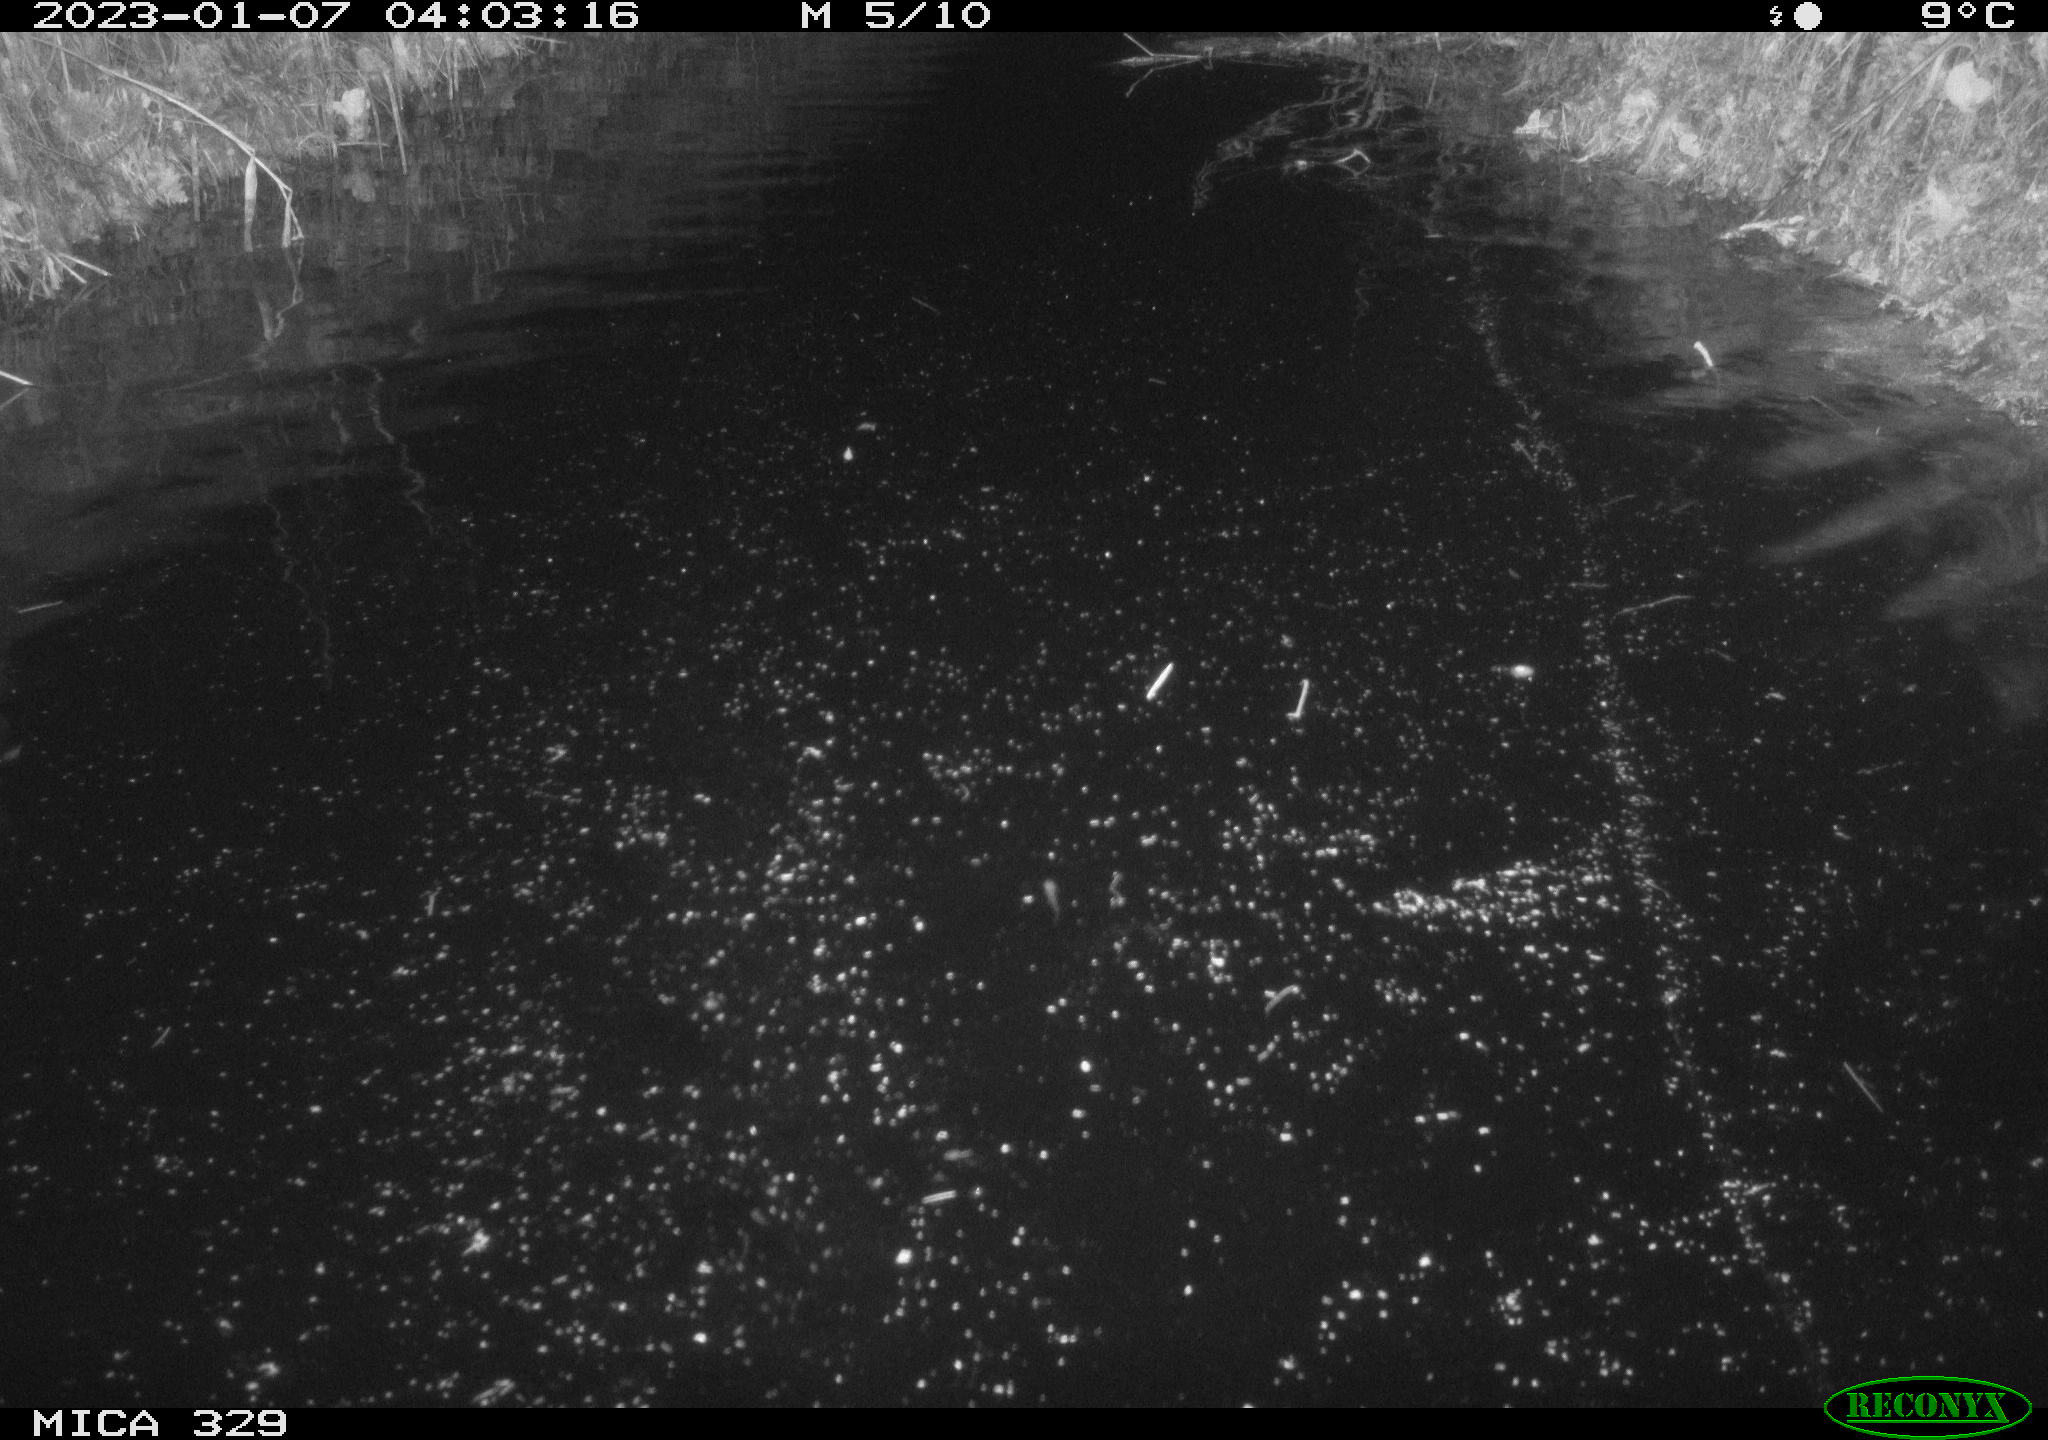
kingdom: Animalia
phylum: Chordata
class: Mammalia
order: Rodentia
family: Cricetidae
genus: Ondatra
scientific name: Ondatra zibethicus
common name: Muskrat
